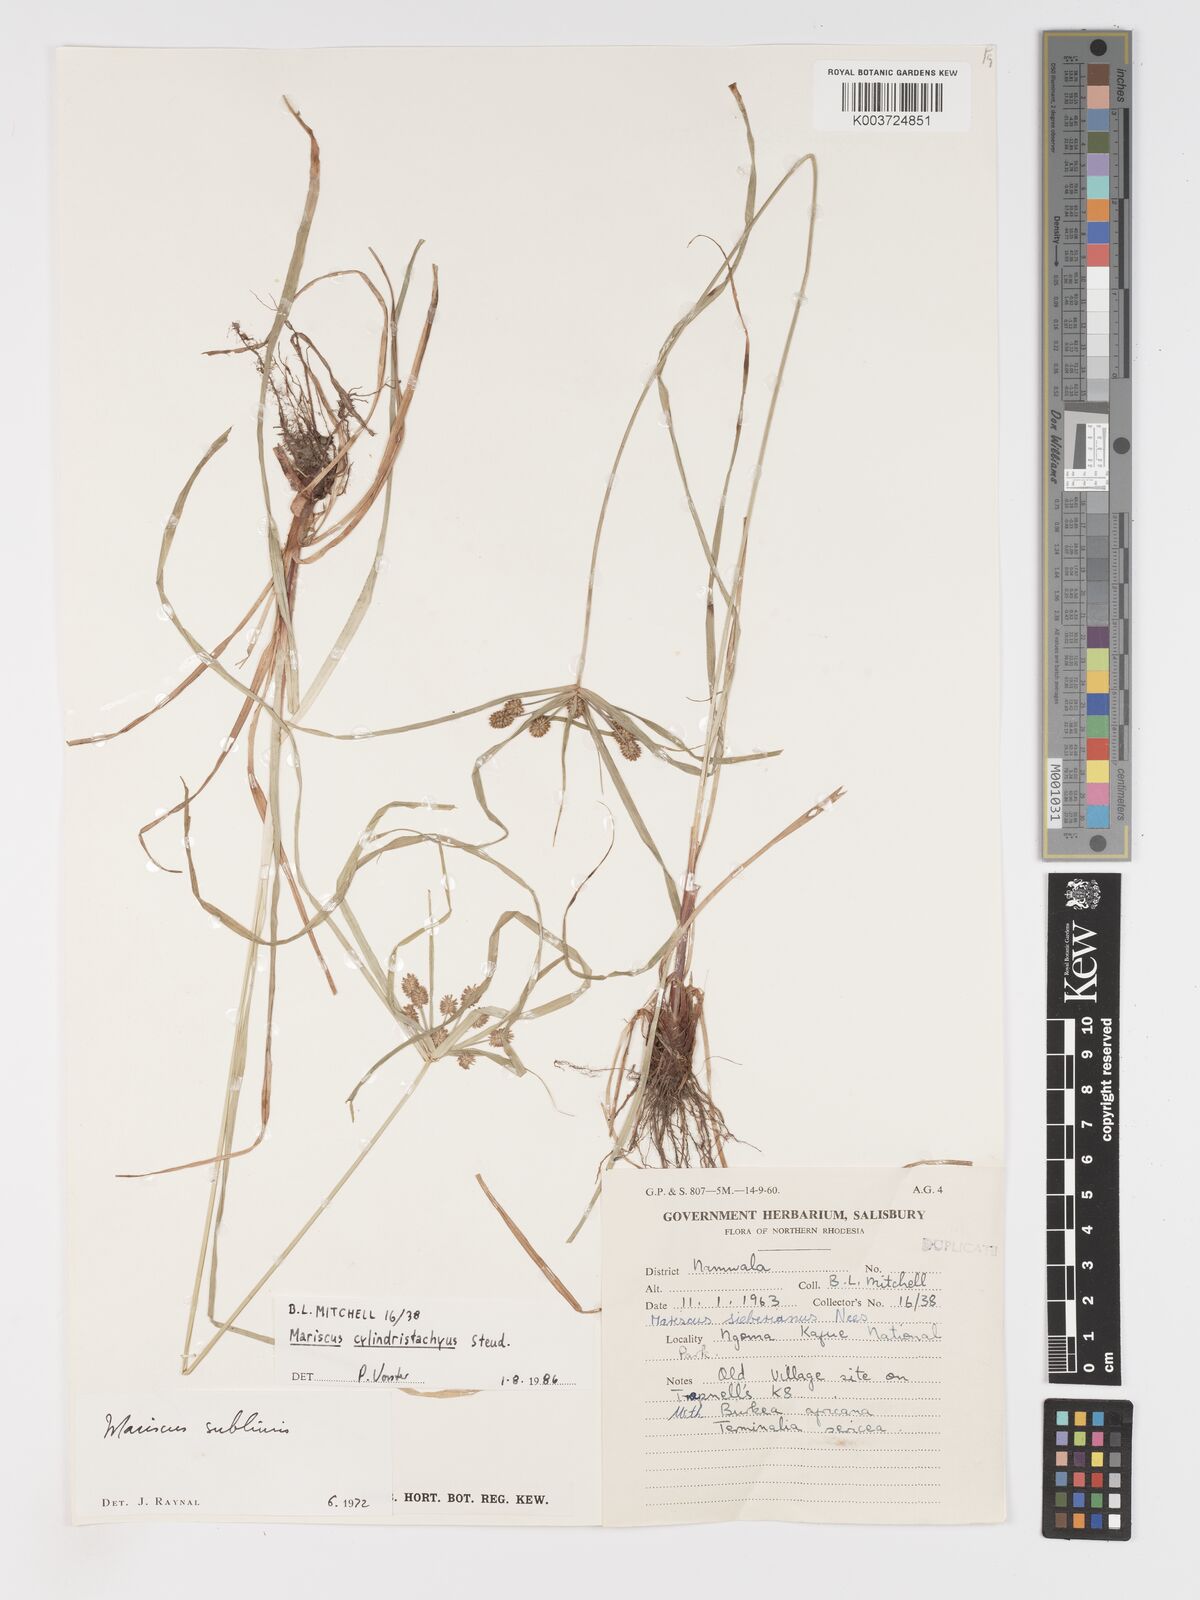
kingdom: Plantae
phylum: Tracheophyta
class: Liliopsida
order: Poales
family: Cyperaceae
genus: Cyperus
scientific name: Cyperus cyperoides
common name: Pacific island flat sedge
